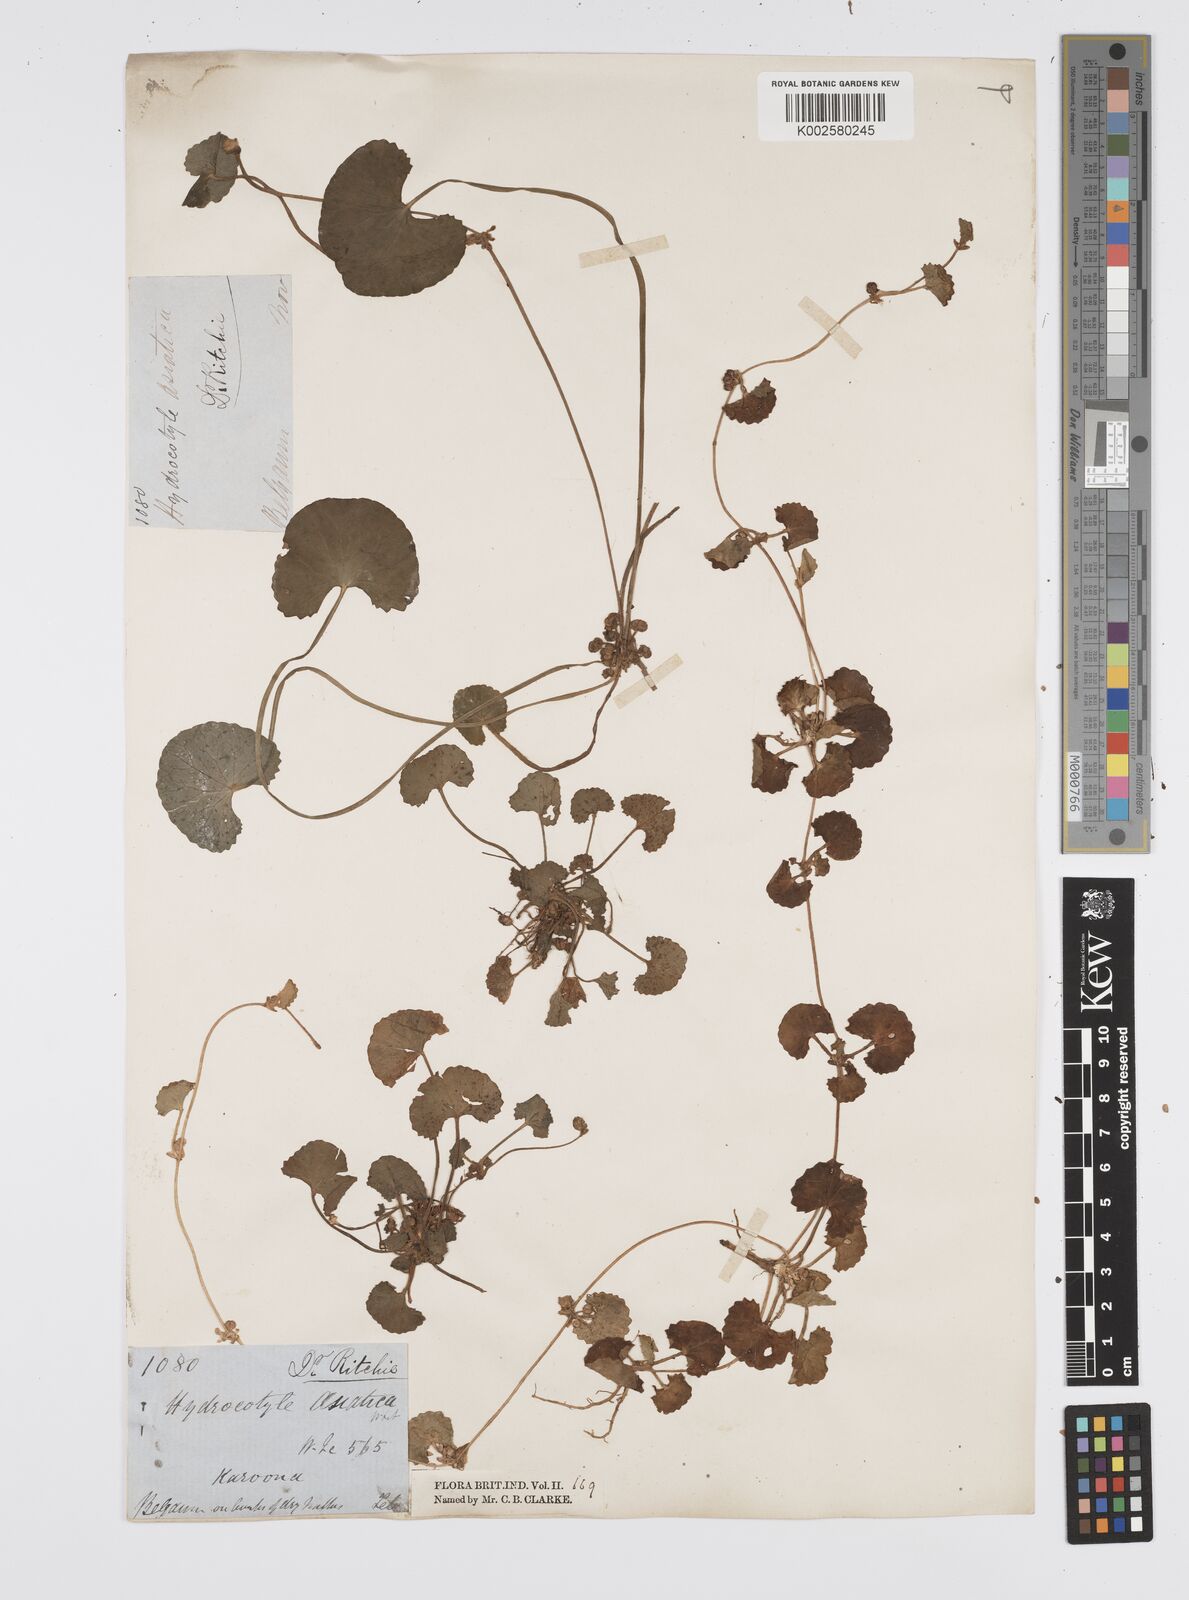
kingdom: Plantae
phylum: Tracheophyta
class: Magnoliopsida
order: Apiales
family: Apiaceae
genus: Centella
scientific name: Centella asiatica
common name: Spadeleaf
